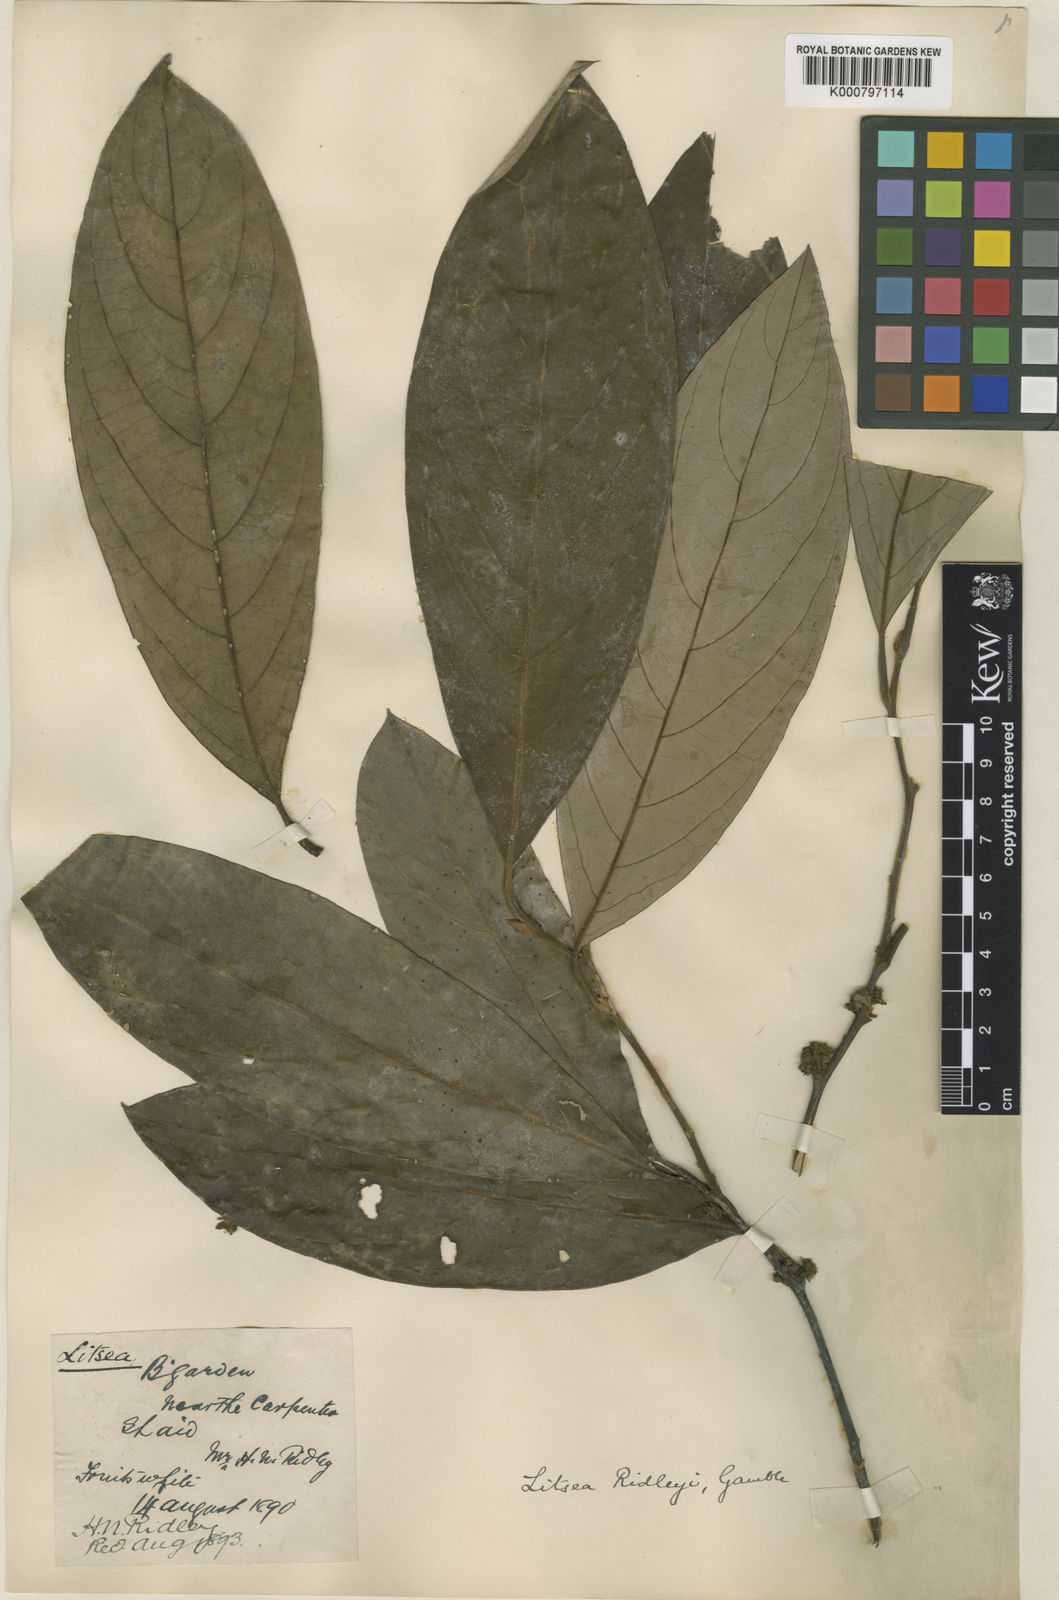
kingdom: Plantae
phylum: Tracheophyta
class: Magnoliopsida
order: Laurales
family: Lauraceae
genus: Litsea
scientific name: Litsea ridleyi
